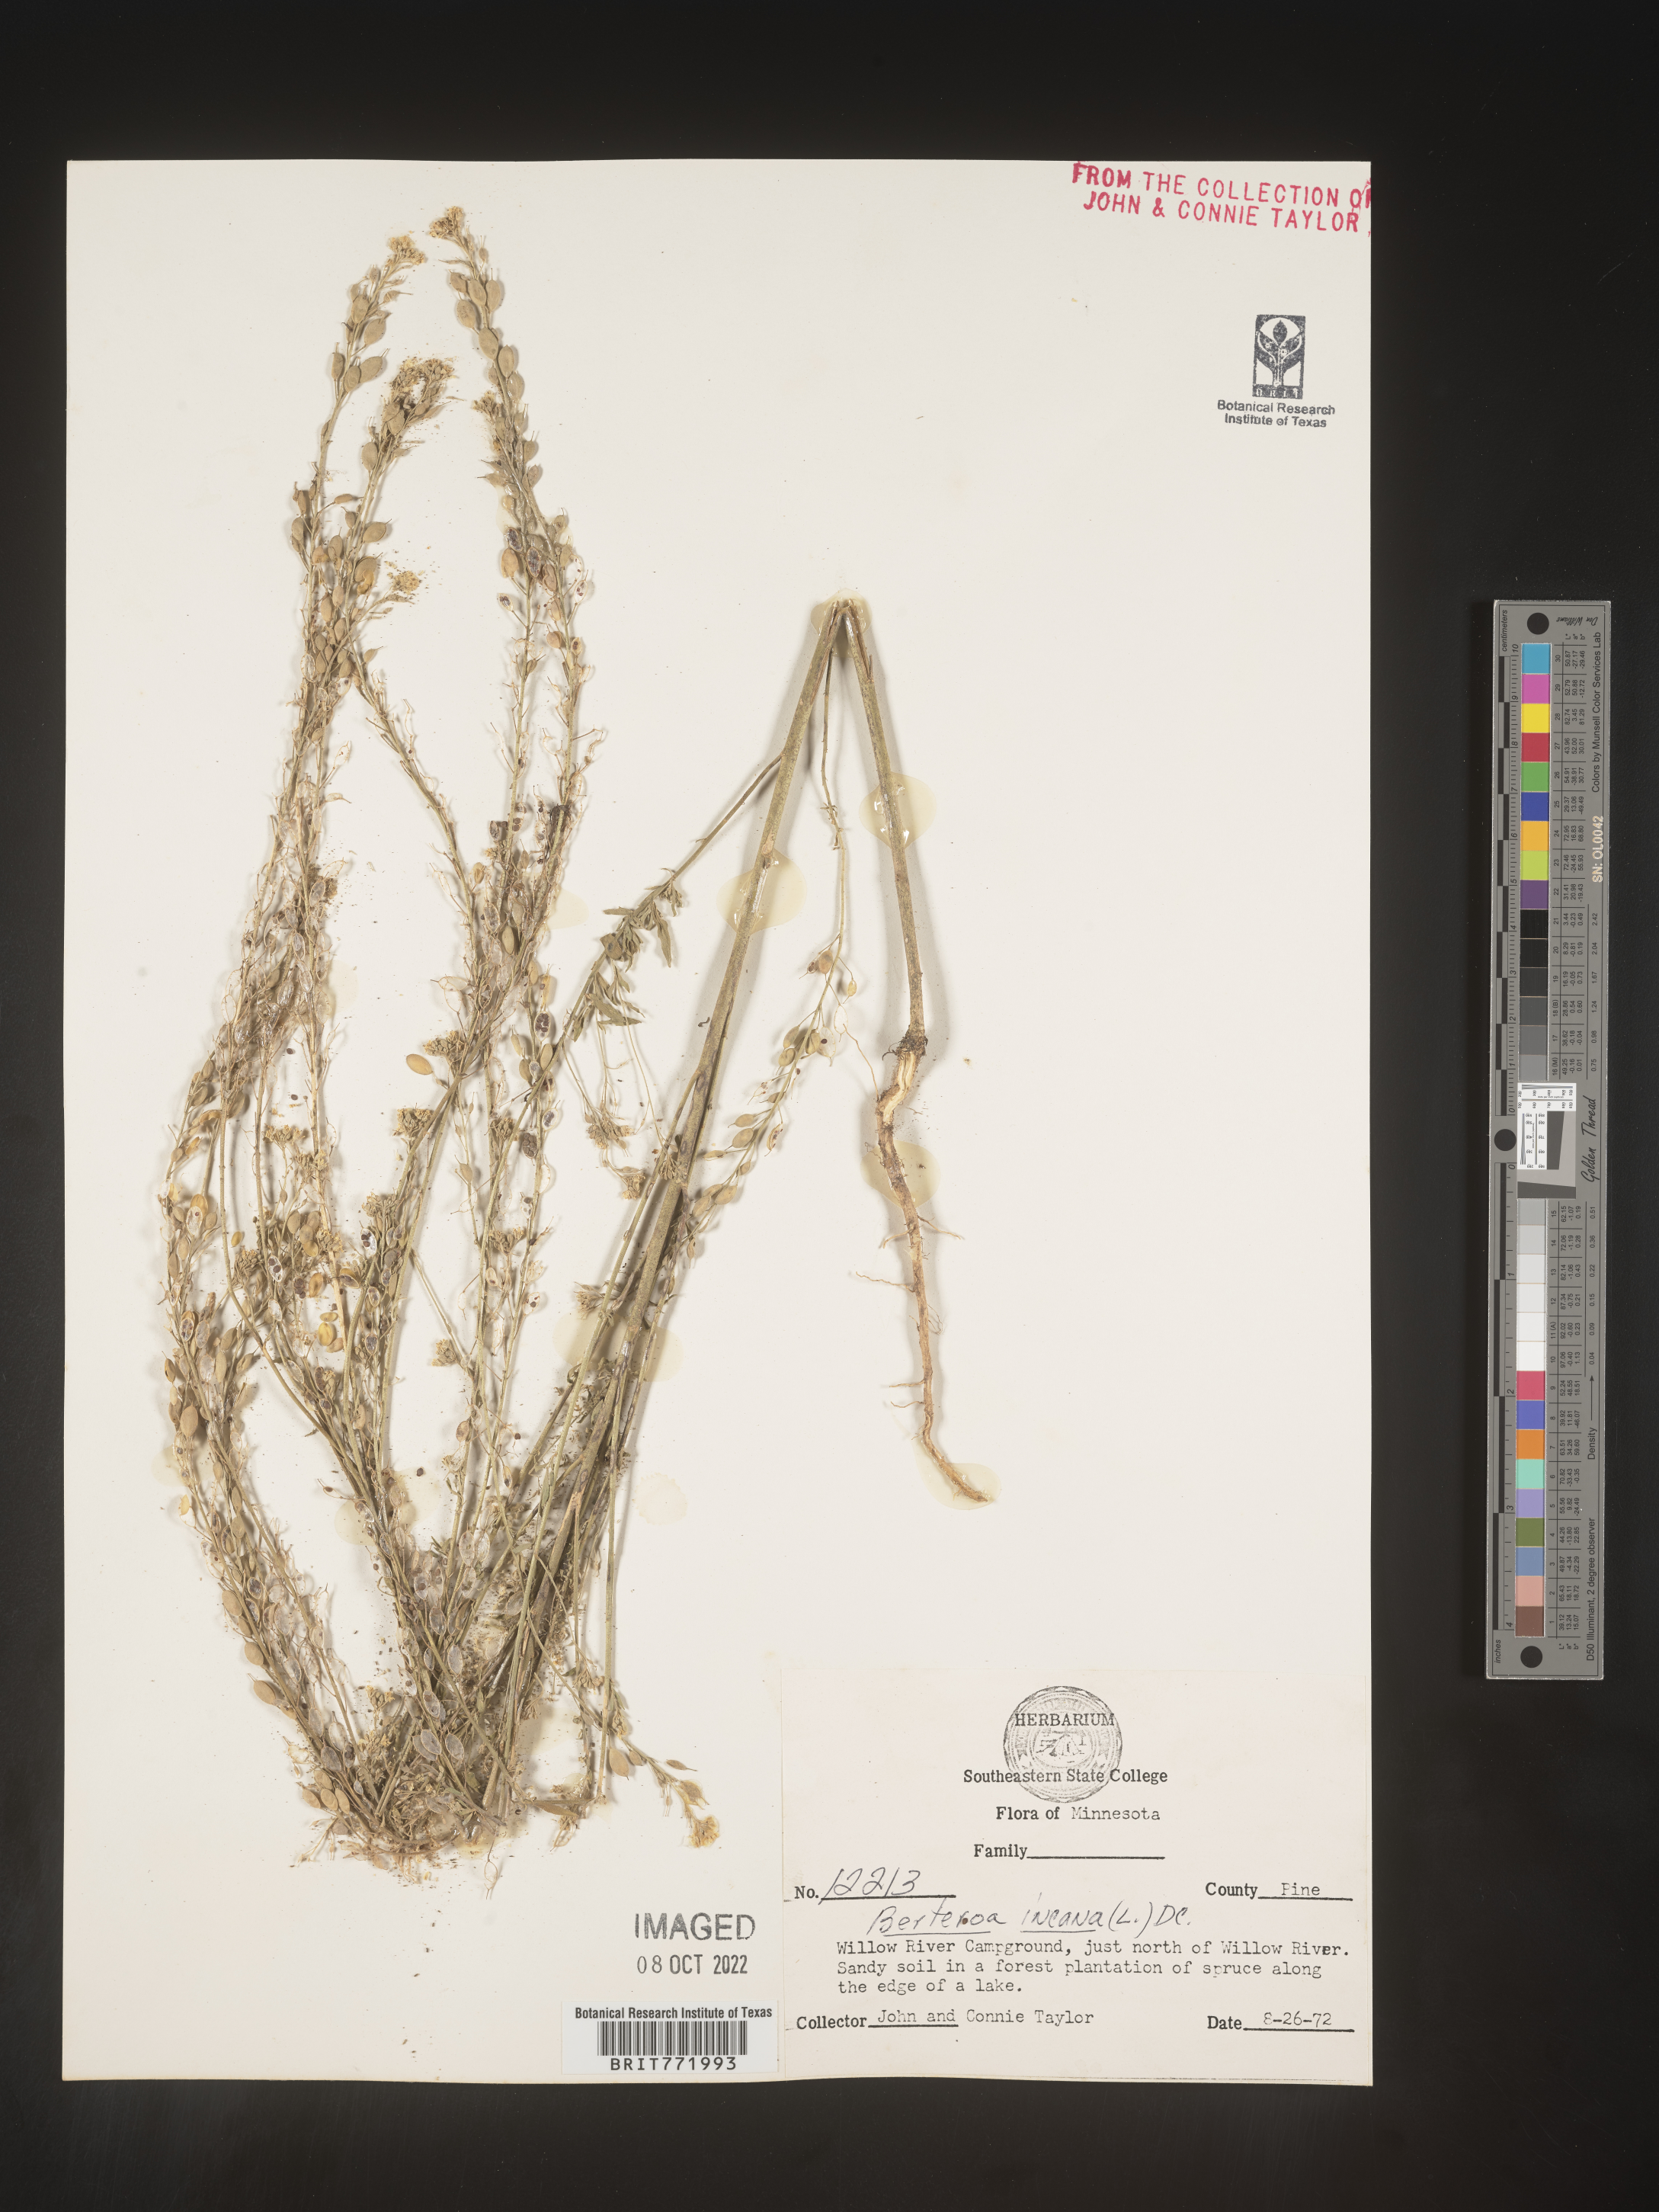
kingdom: Plantae
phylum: Tracheophyta
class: Magnoliopsida
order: Brassicales
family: Brassicaceae
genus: Berteroa
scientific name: Berteroa incana
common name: Hoary alison
